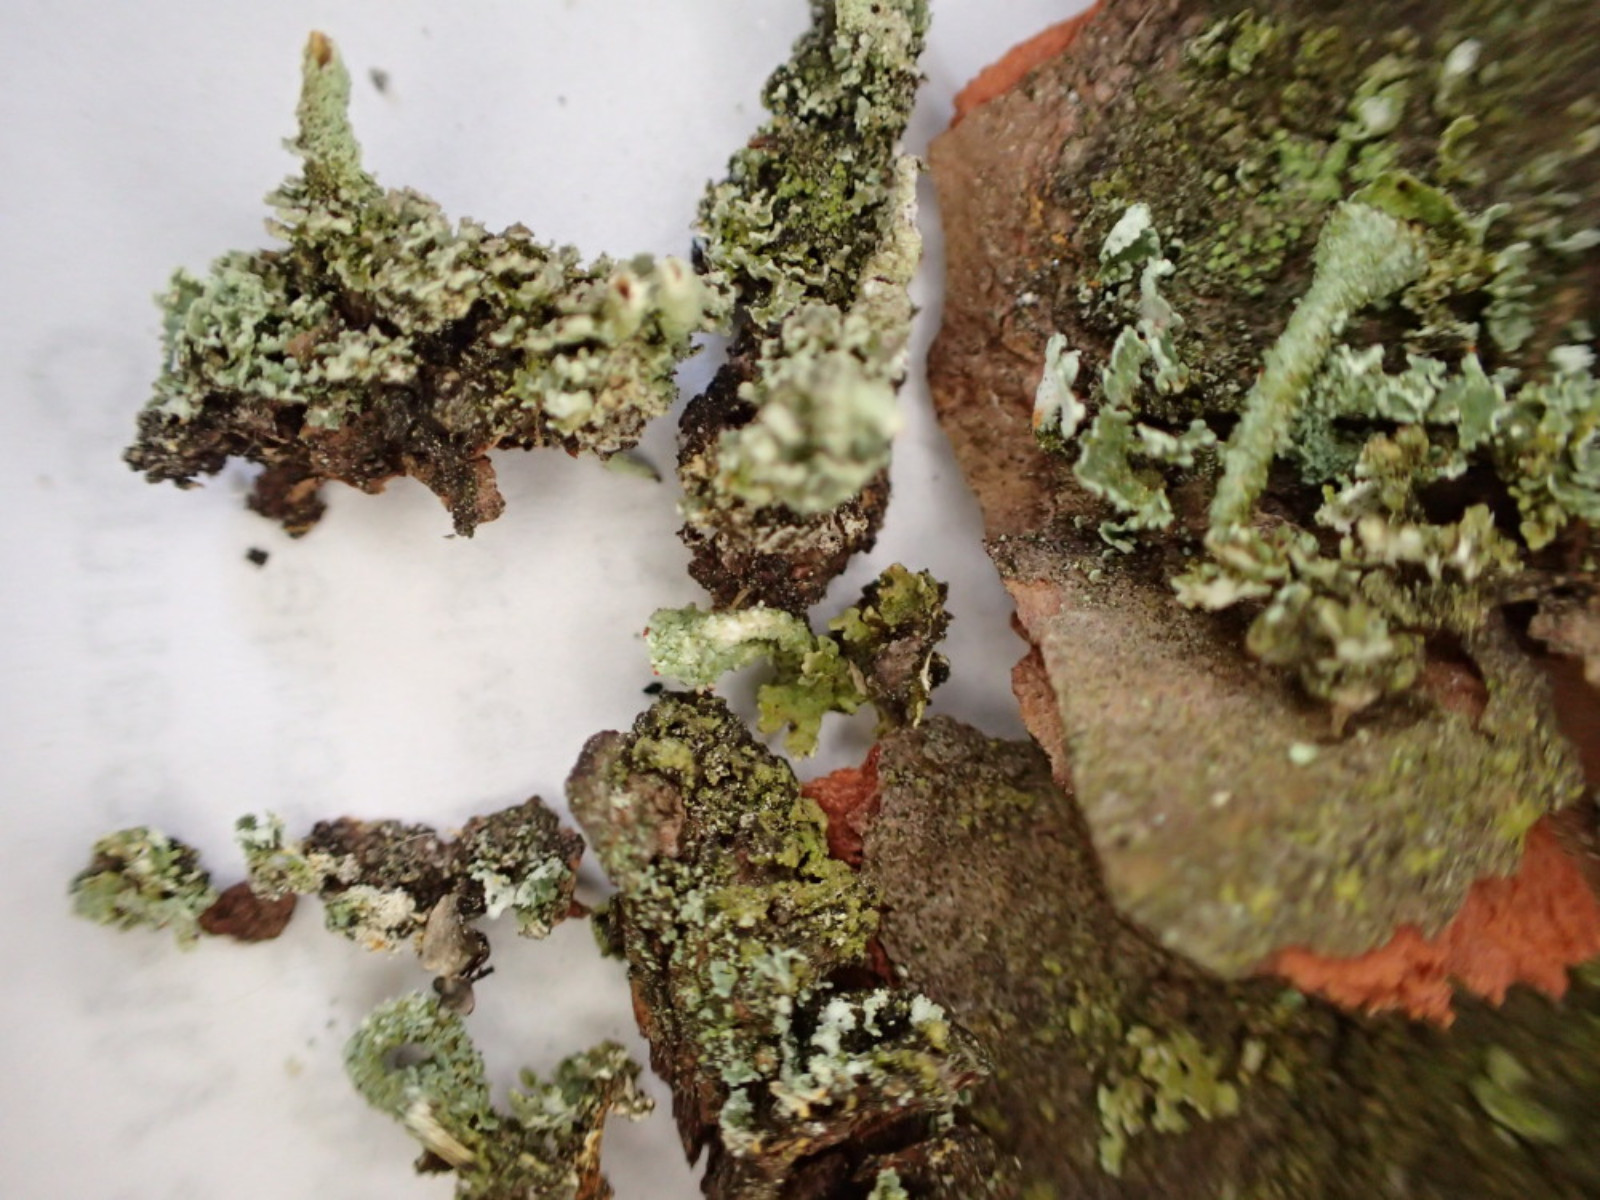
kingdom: Fungi
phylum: Ascomycota
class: Lecanoromycetes
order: Lecanorales
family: Cladoniaceae
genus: Cladonia
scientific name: Cladonia
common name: brungrøn bægerlav
